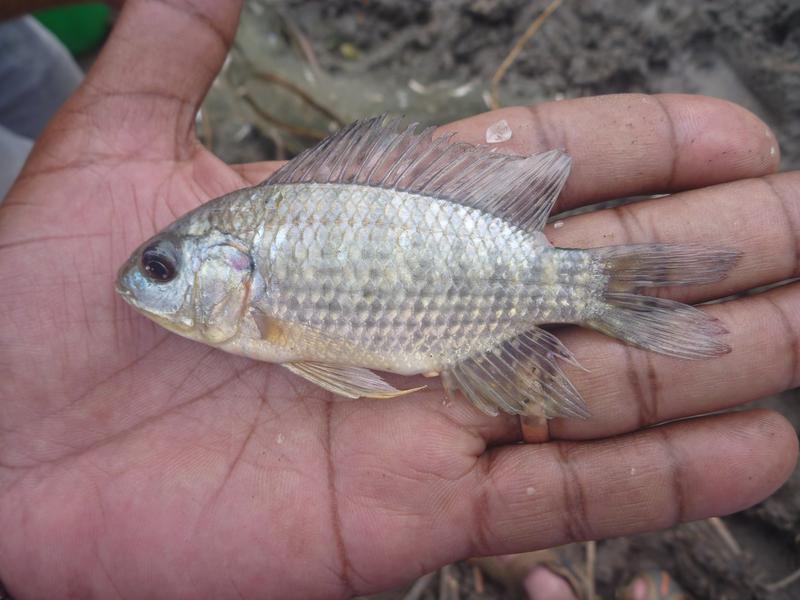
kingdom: Animalia
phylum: Chordata
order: Perciformes
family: Cichlidae
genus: Oreochromis
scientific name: Oreochromis leucostictus
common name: Blue spotted tilapia
